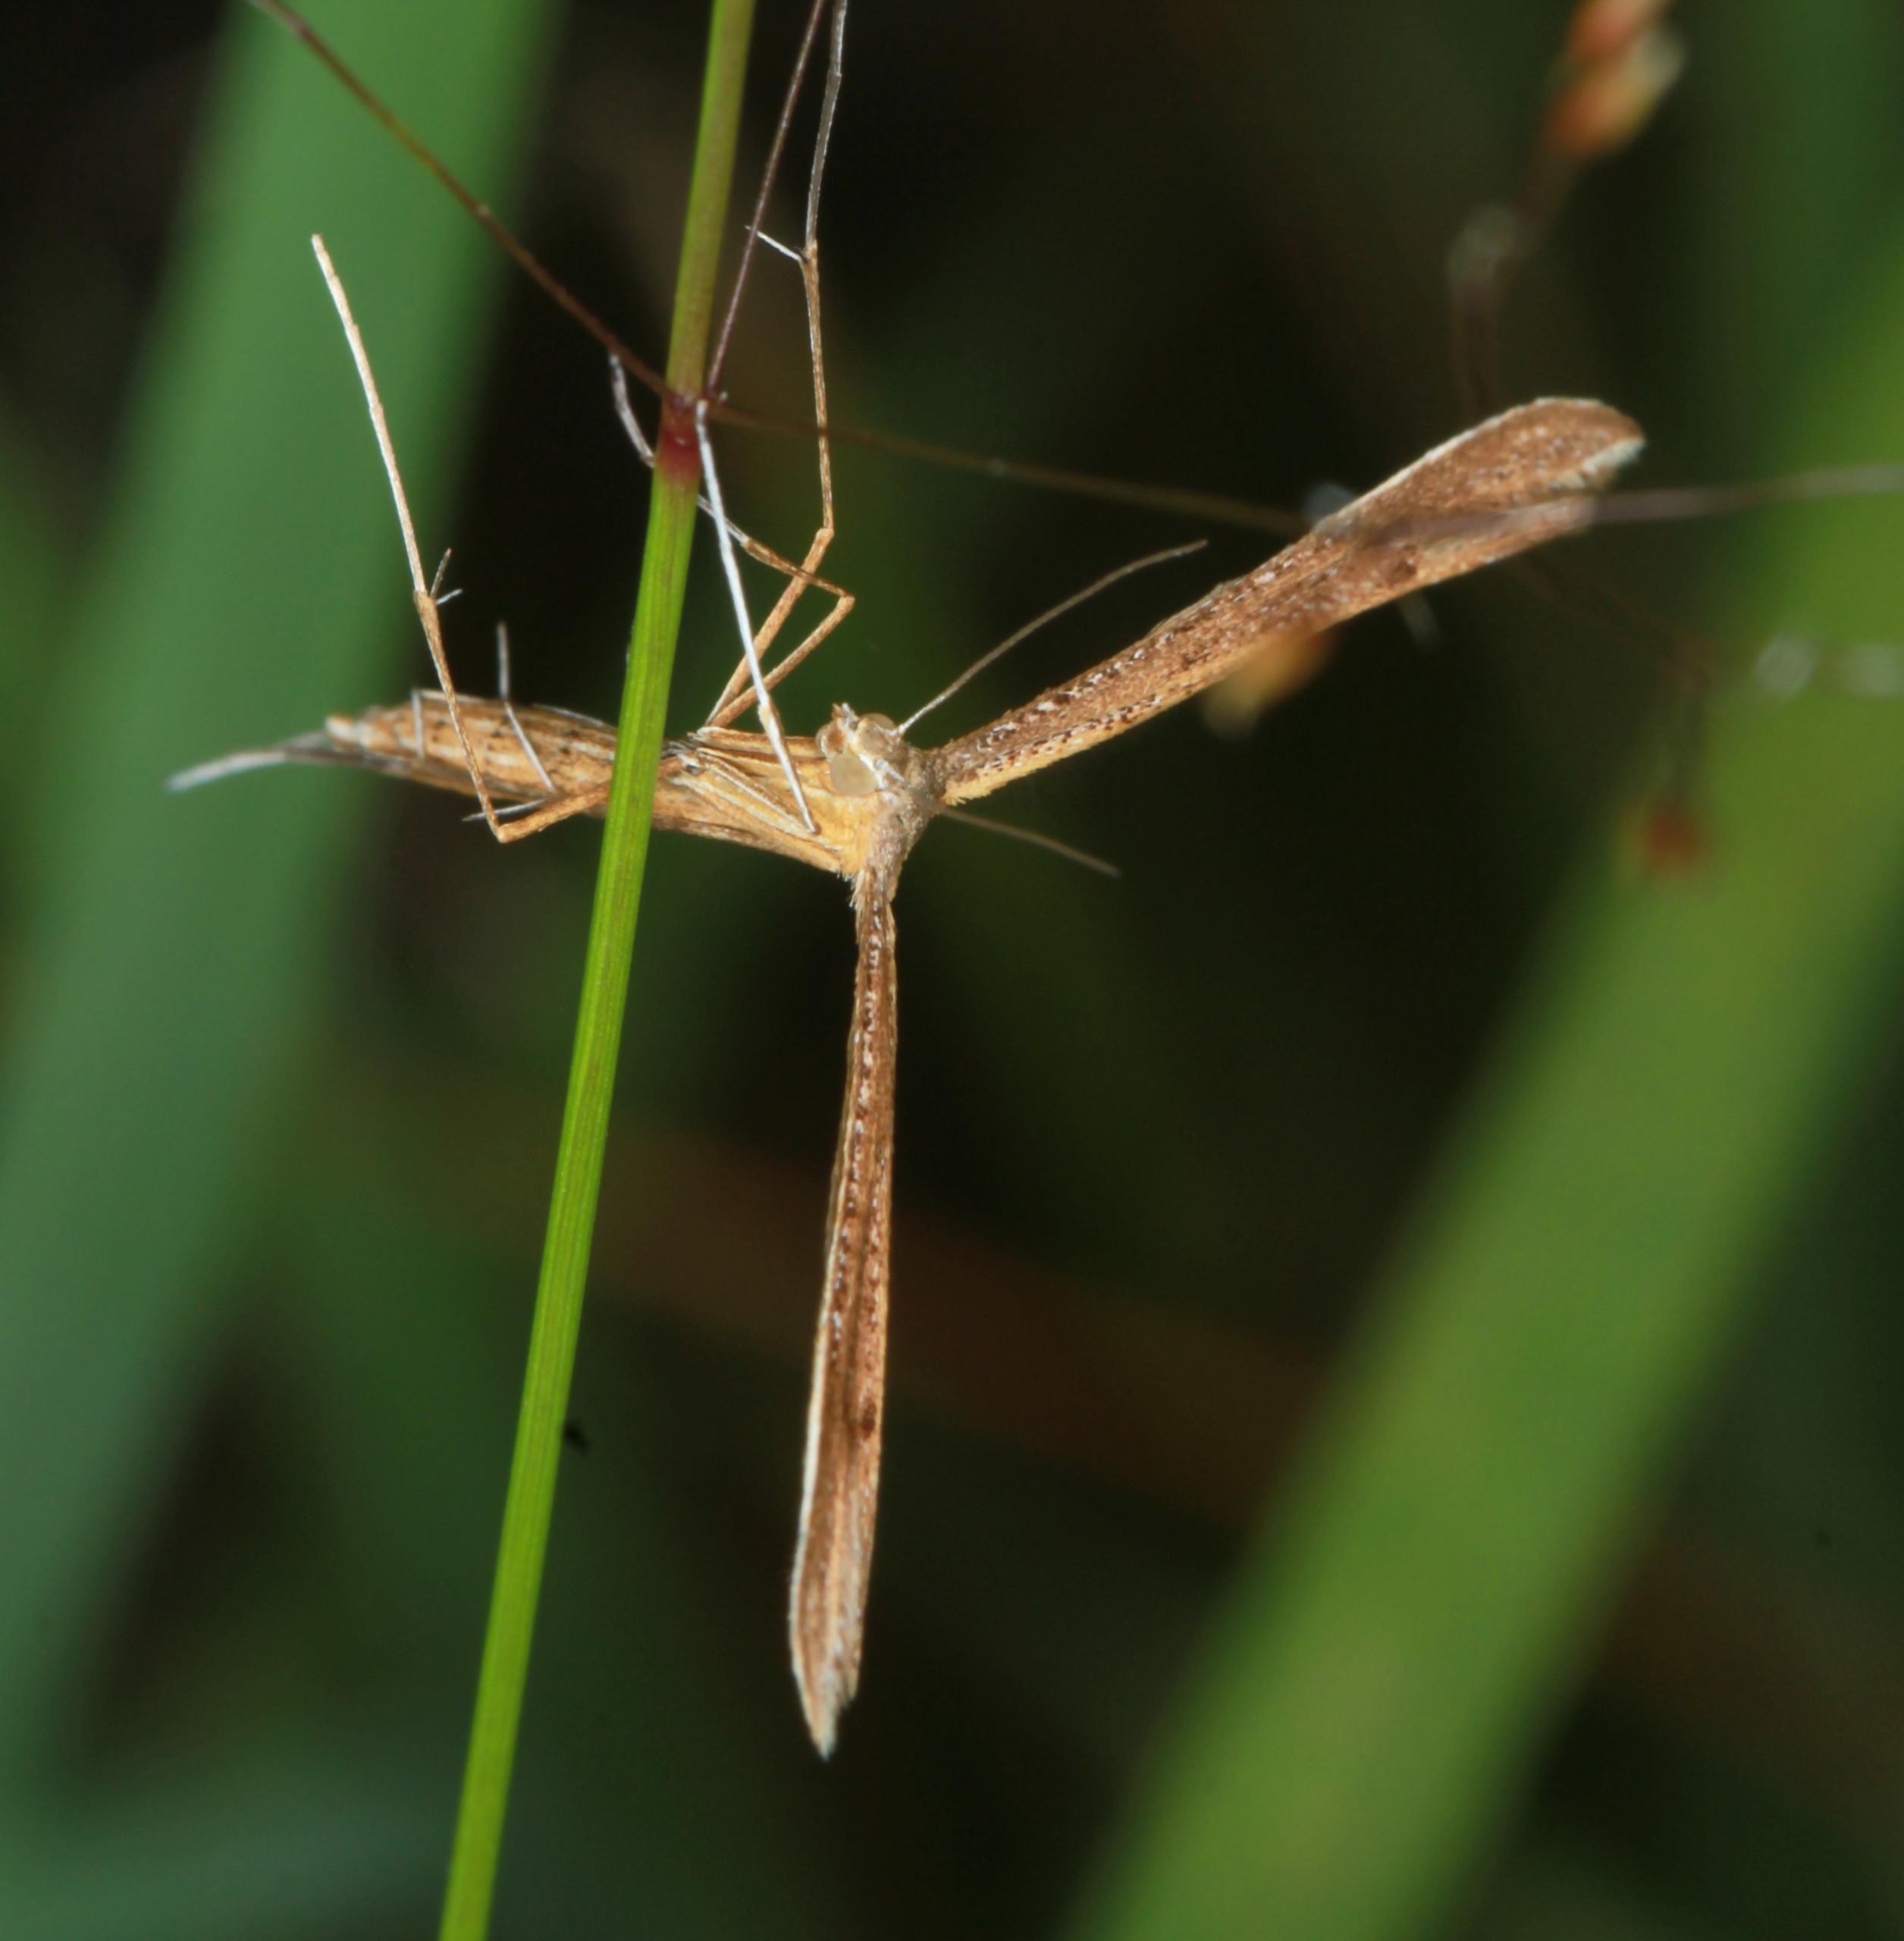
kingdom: Animalia
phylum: Arthropoda
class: Insecta
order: Lepidoptera
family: Pterophoridae
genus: Stenoptilia
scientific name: Stenoptilia pterodactyla
